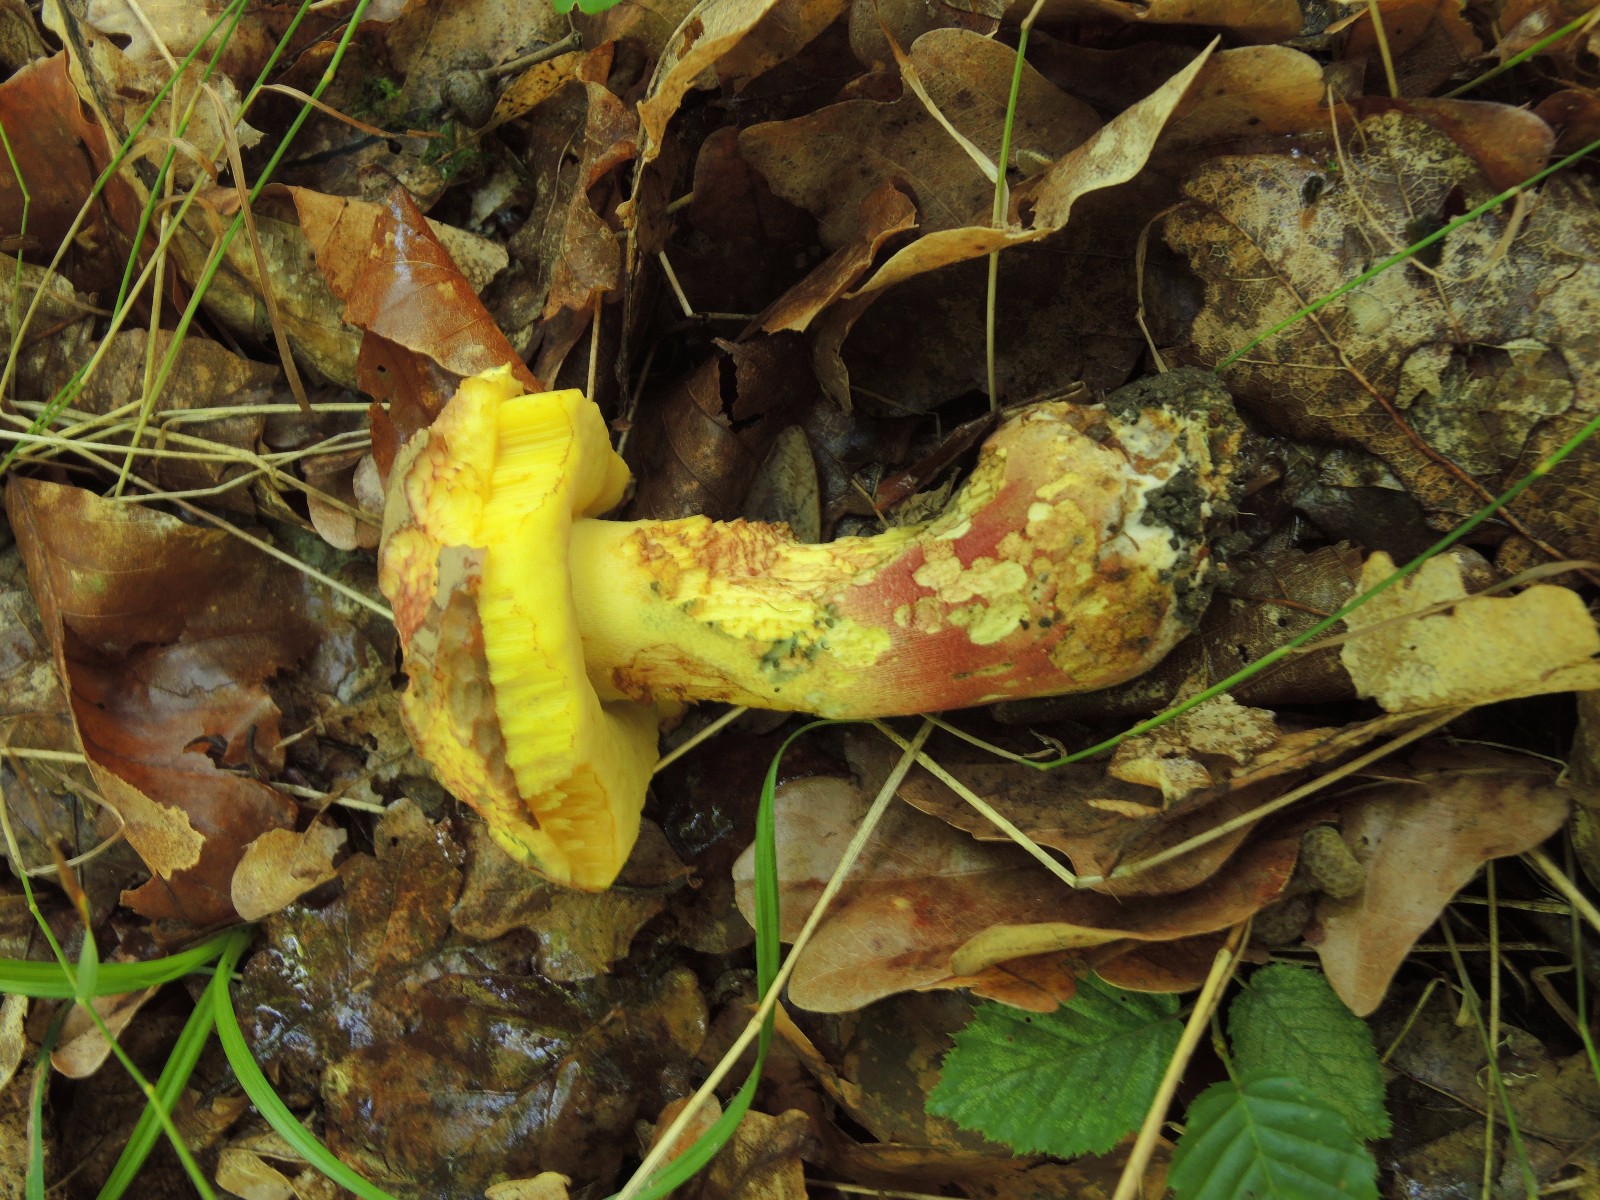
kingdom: Fungi
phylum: Basidiomycota
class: Agaricomycetes
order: Boletales
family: Boletaceae
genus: Butyriboletus
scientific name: Butyriboletus fuscoroseus
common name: brunrosa rørhat
